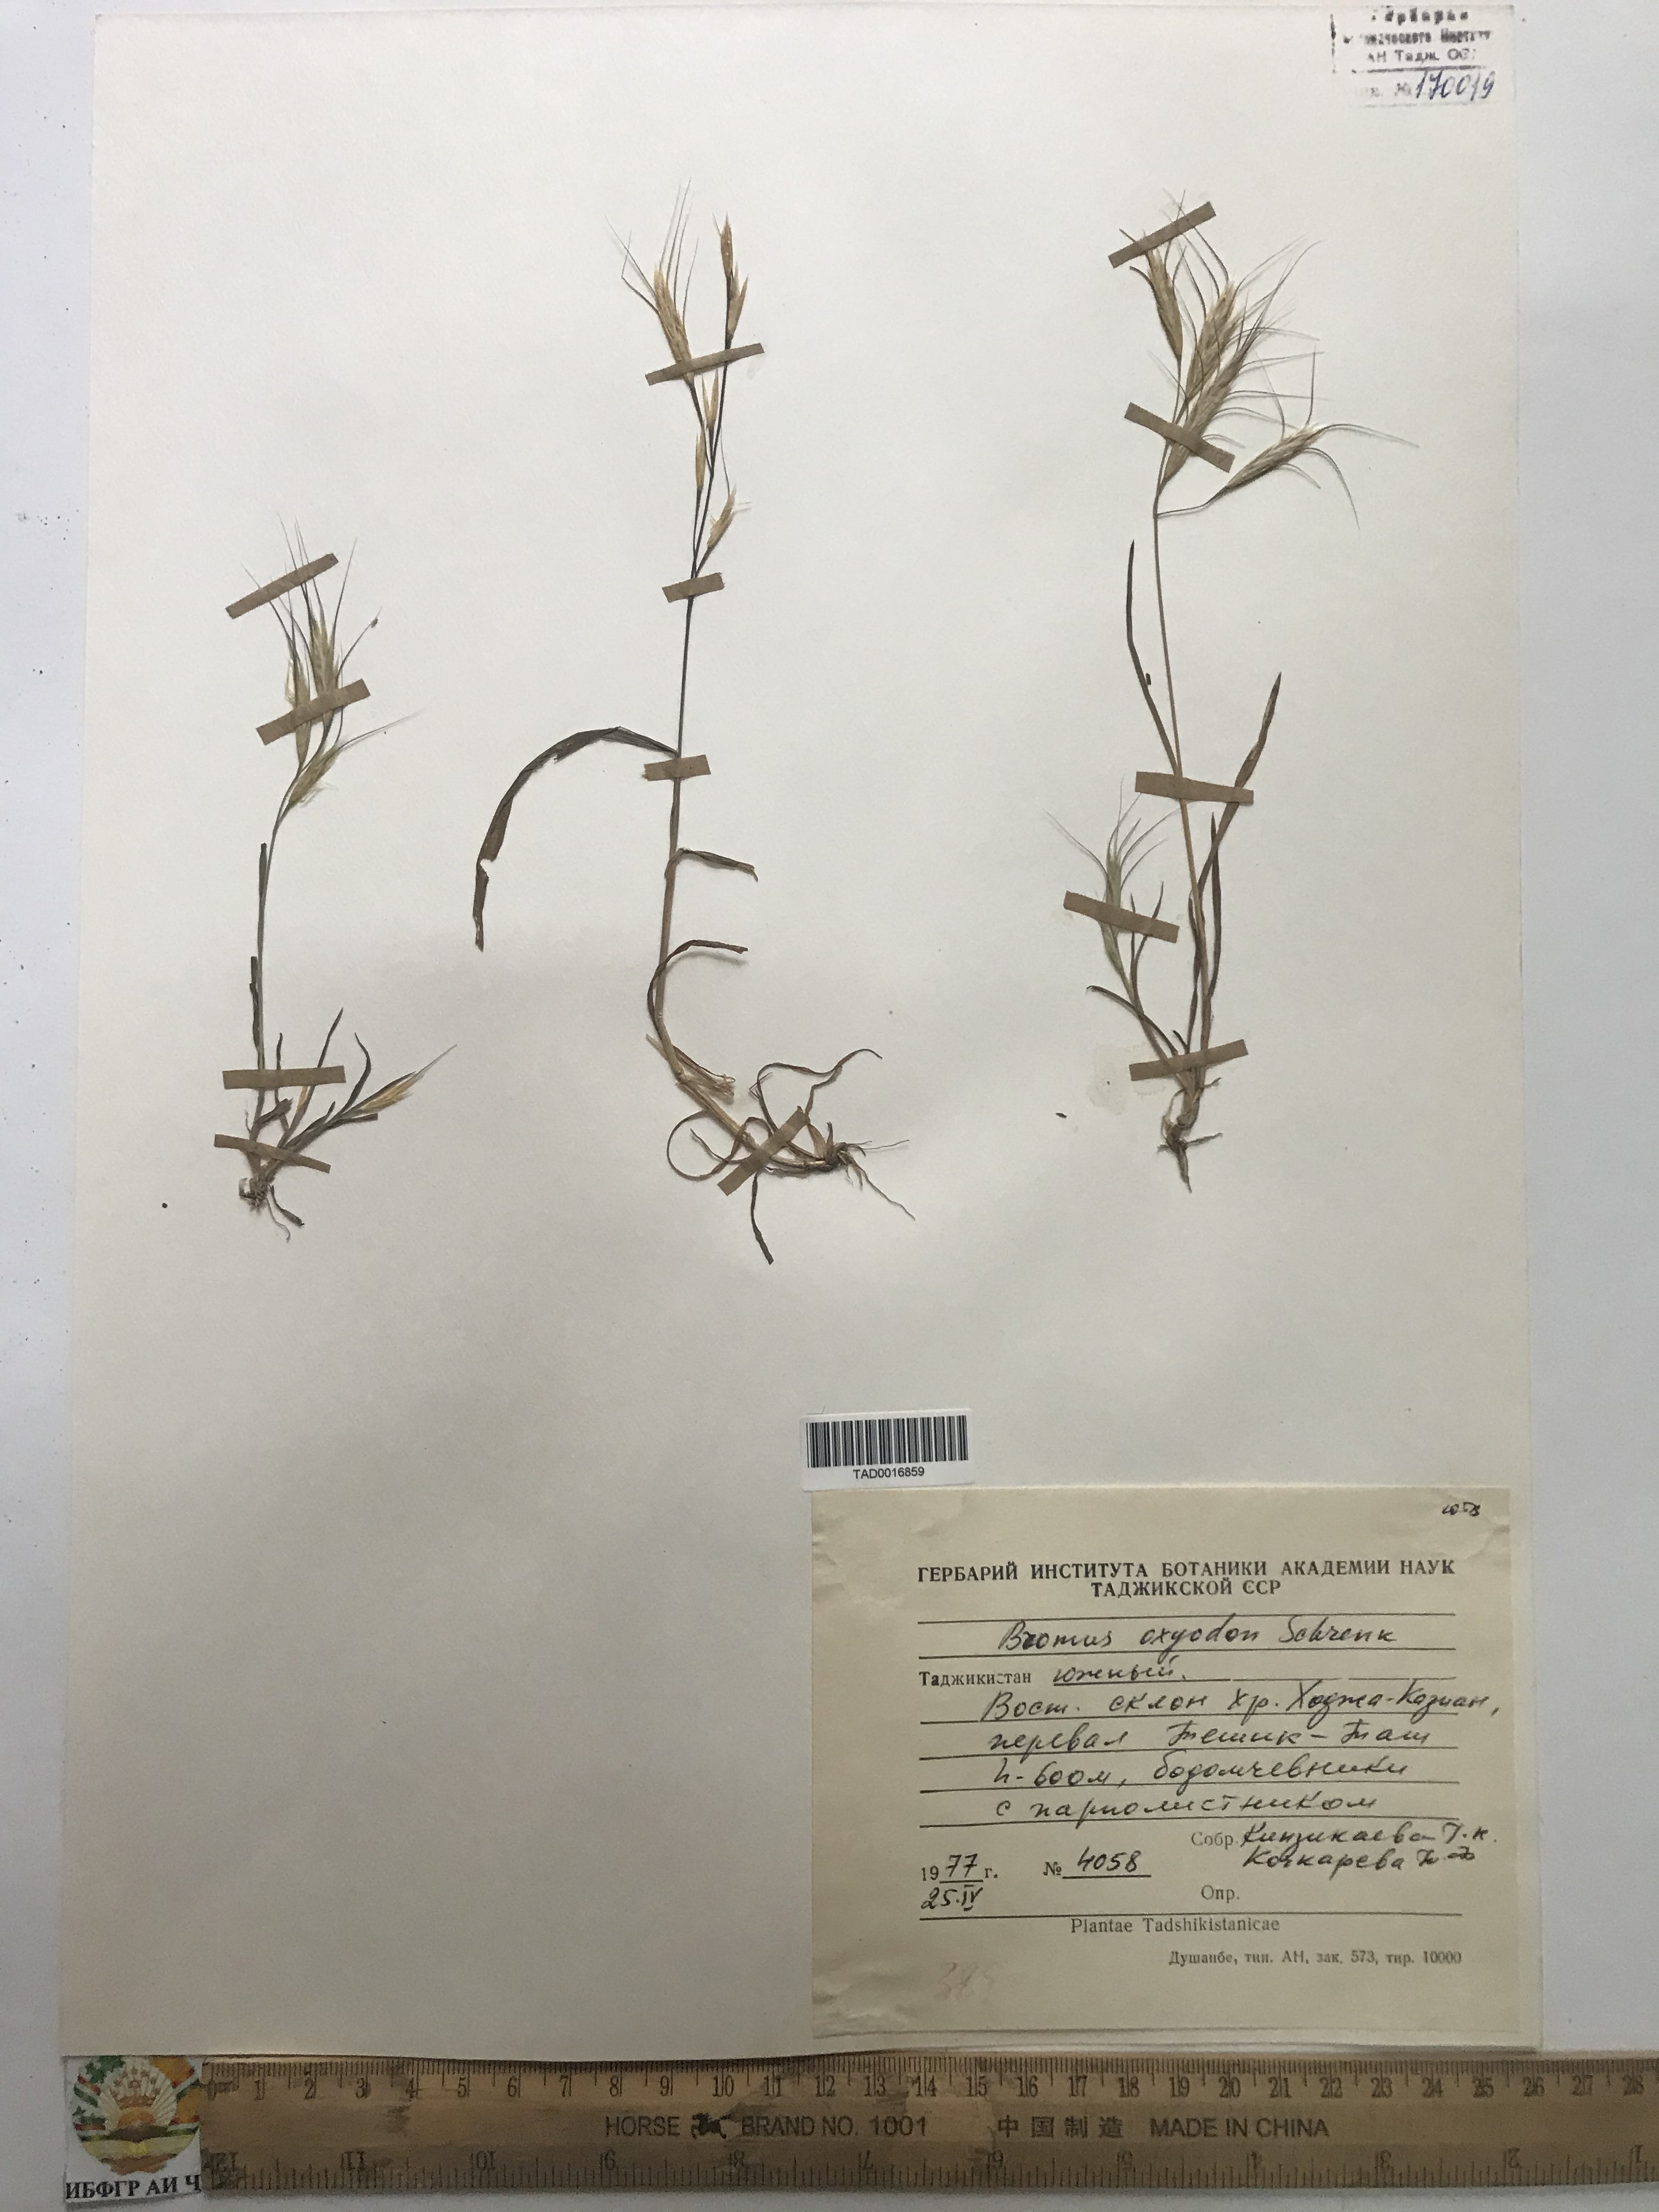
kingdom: Plantae
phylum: Tracheophyta
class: Liliopsida
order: Poales
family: Poaceae
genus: Bromus
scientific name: Bromus oxyodon
